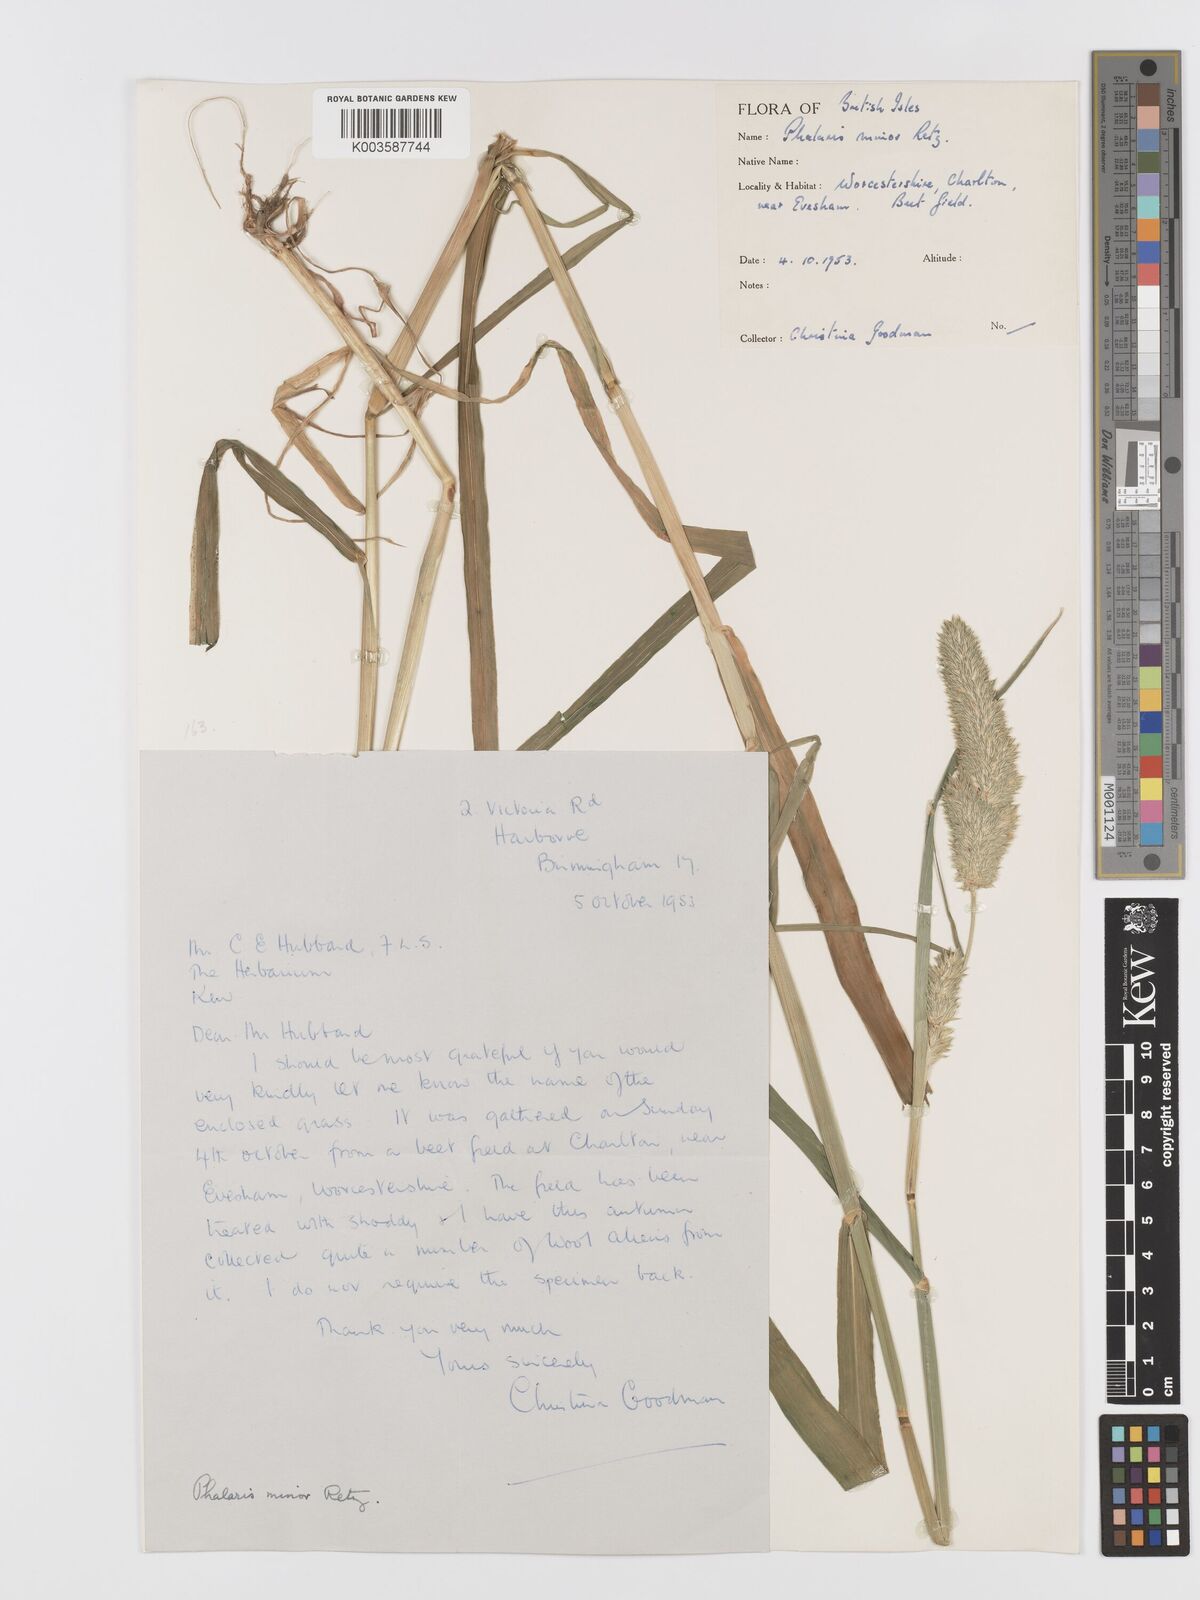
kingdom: Plantae
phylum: Tracheophyta
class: Liliopsida
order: Poales
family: Poaceae
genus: Phalaris
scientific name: Phalaris minor
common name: Littleseed canarygrass
